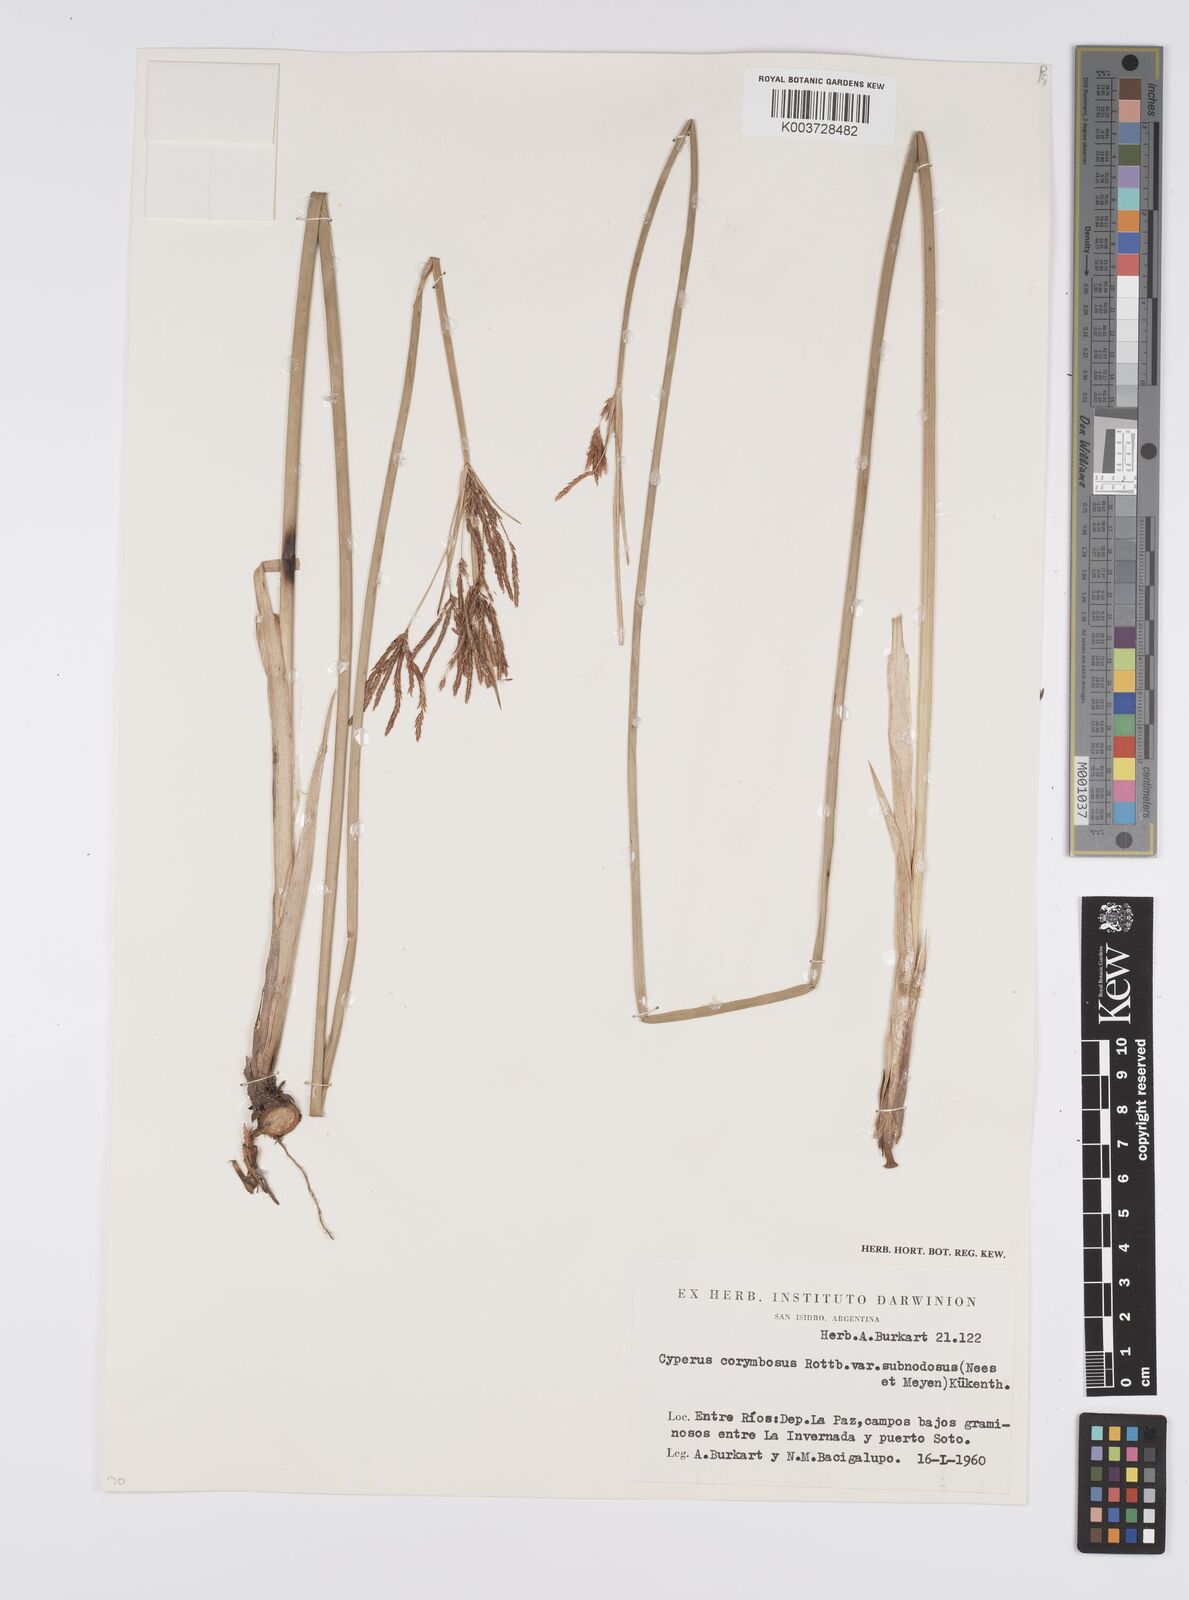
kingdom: Plantae
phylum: Tracheophyta
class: Liliopsida
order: Poales
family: Cyperaceae
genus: Cyperus
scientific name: Cyperus articulatus
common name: Jointed flatsedge
